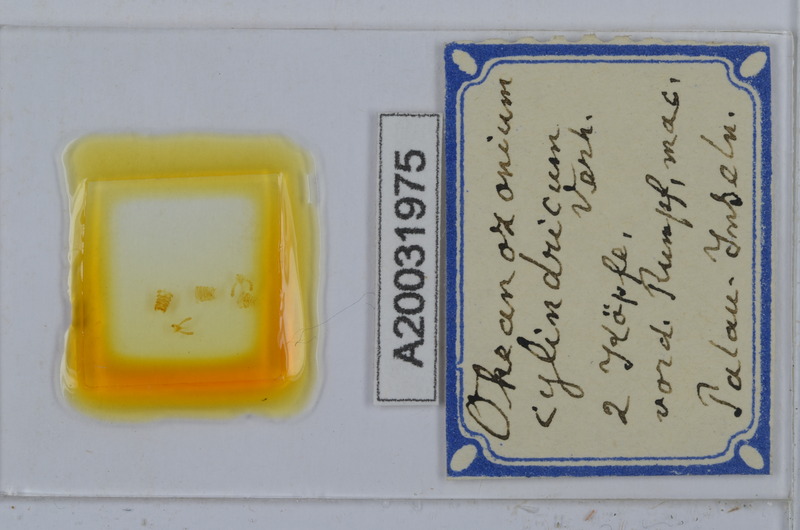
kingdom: Animalia
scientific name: Animalia
